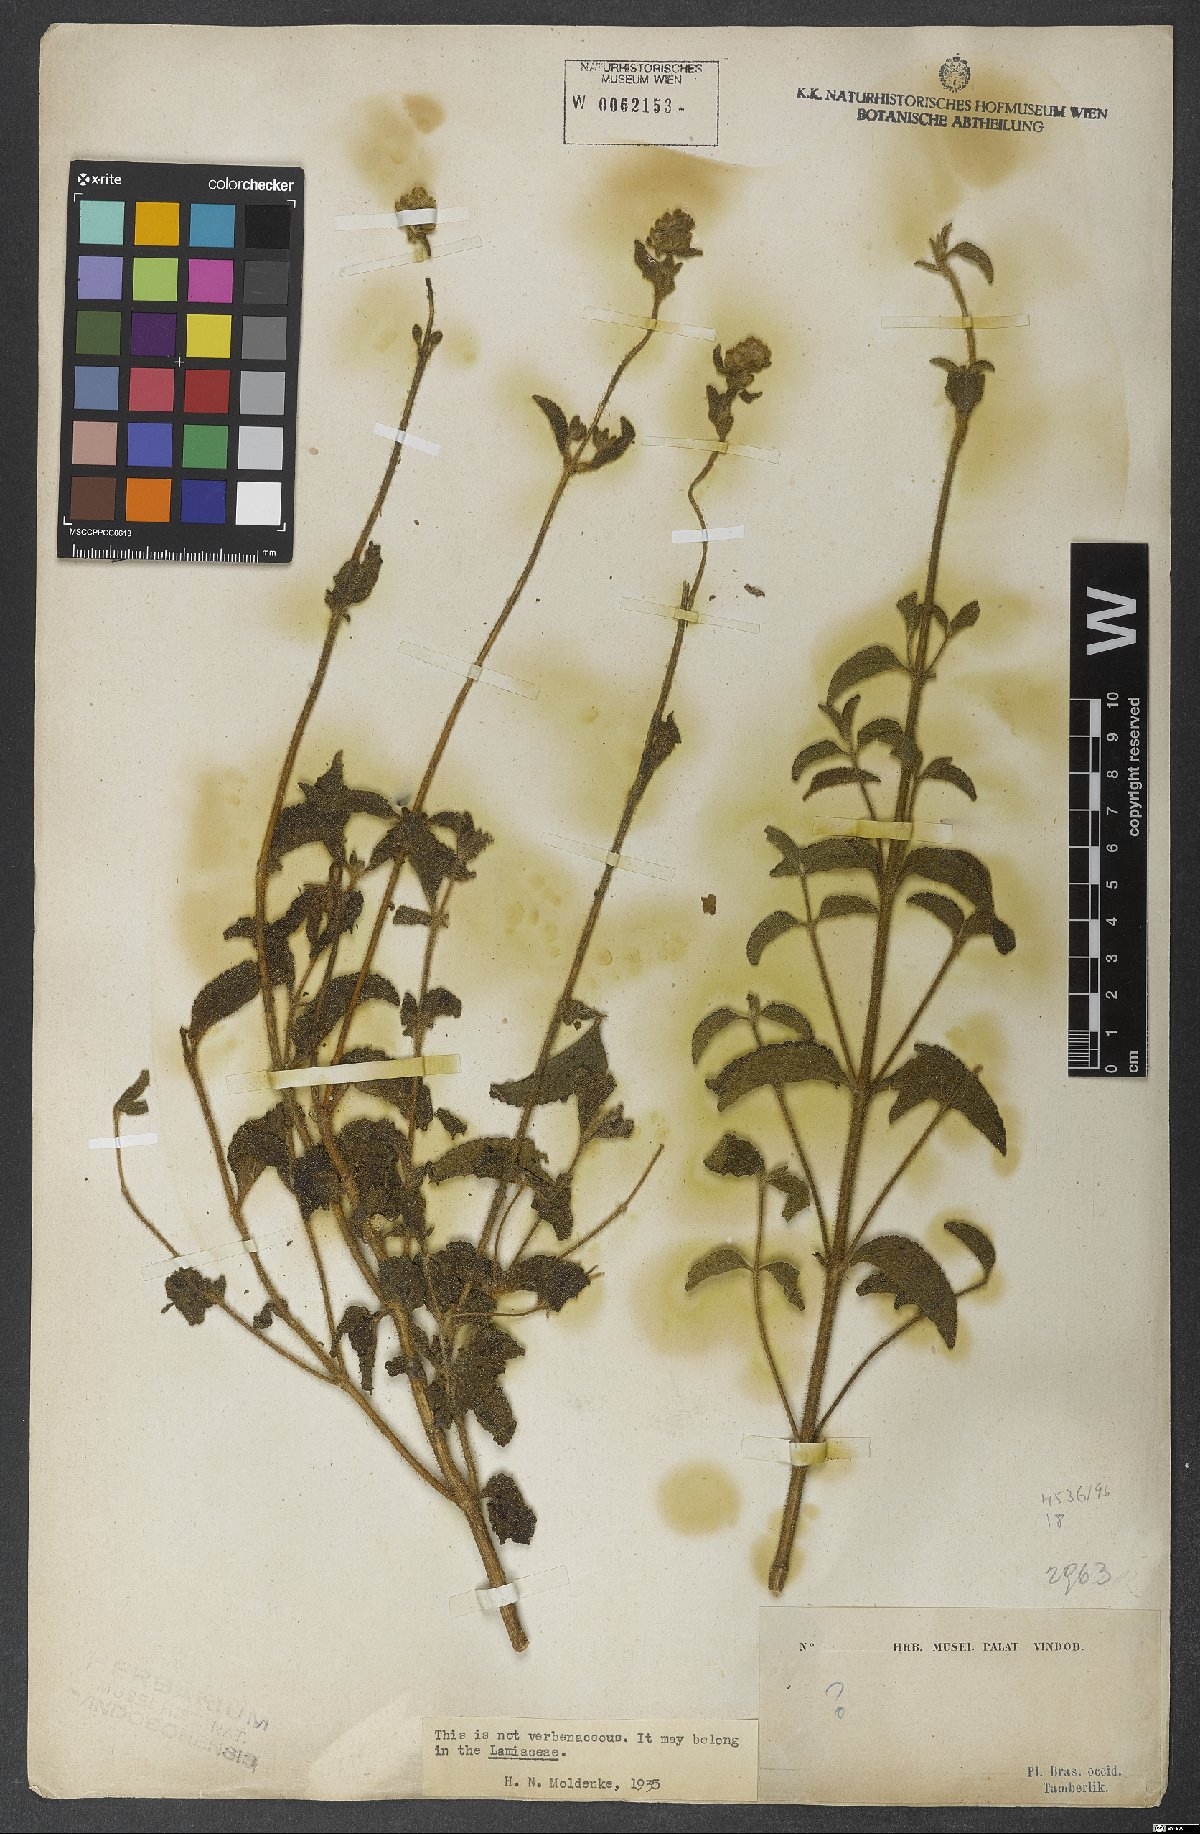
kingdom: Plantae
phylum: Tracheophyta
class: Magnoliopsida
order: Lamiales
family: Lamiaceae
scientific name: Lamiaceae
